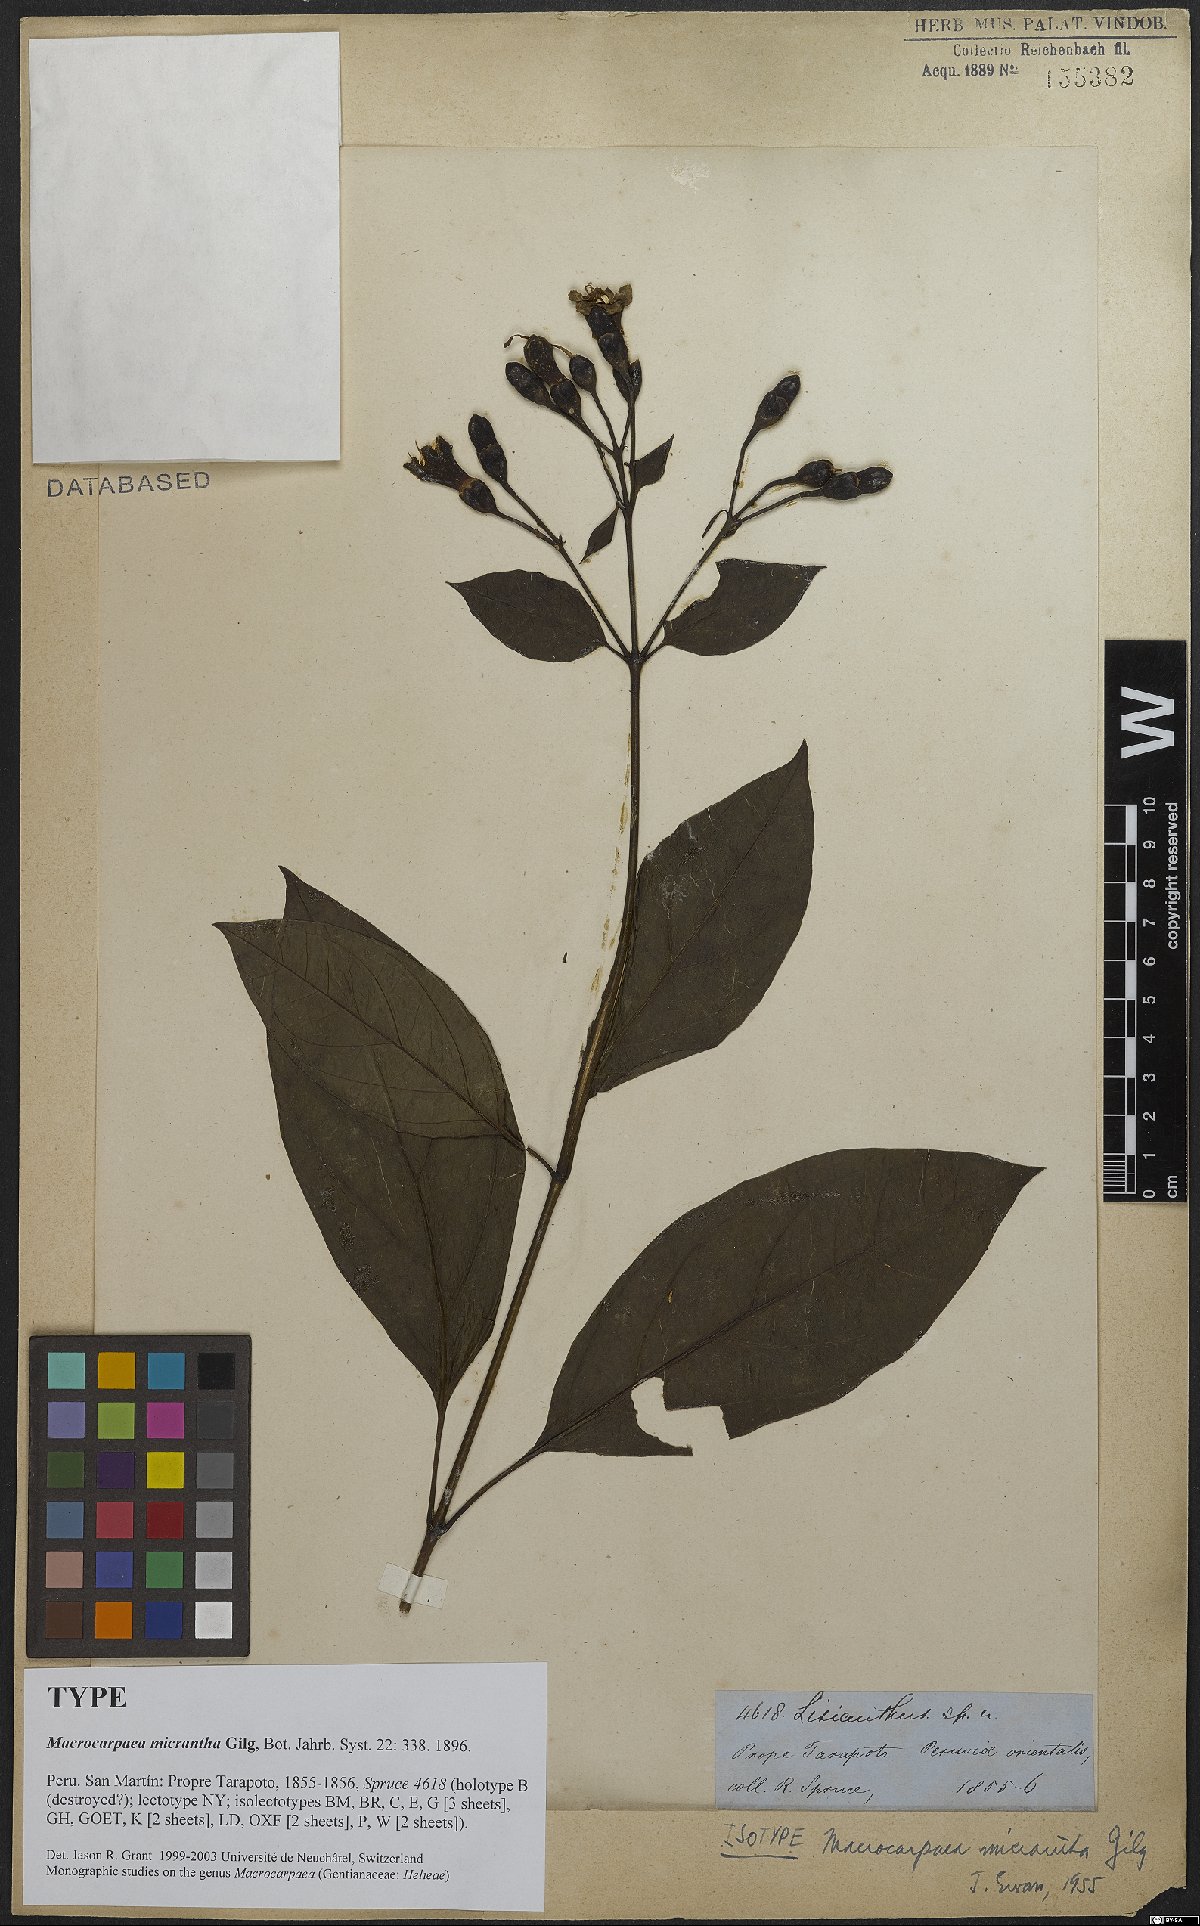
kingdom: Plantae
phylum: Tracheophyta
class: Magnoliopsida
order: Gentianales
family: Gentianaceae
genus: Macrocarpaea
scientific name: Macrocarpaea micrantha
